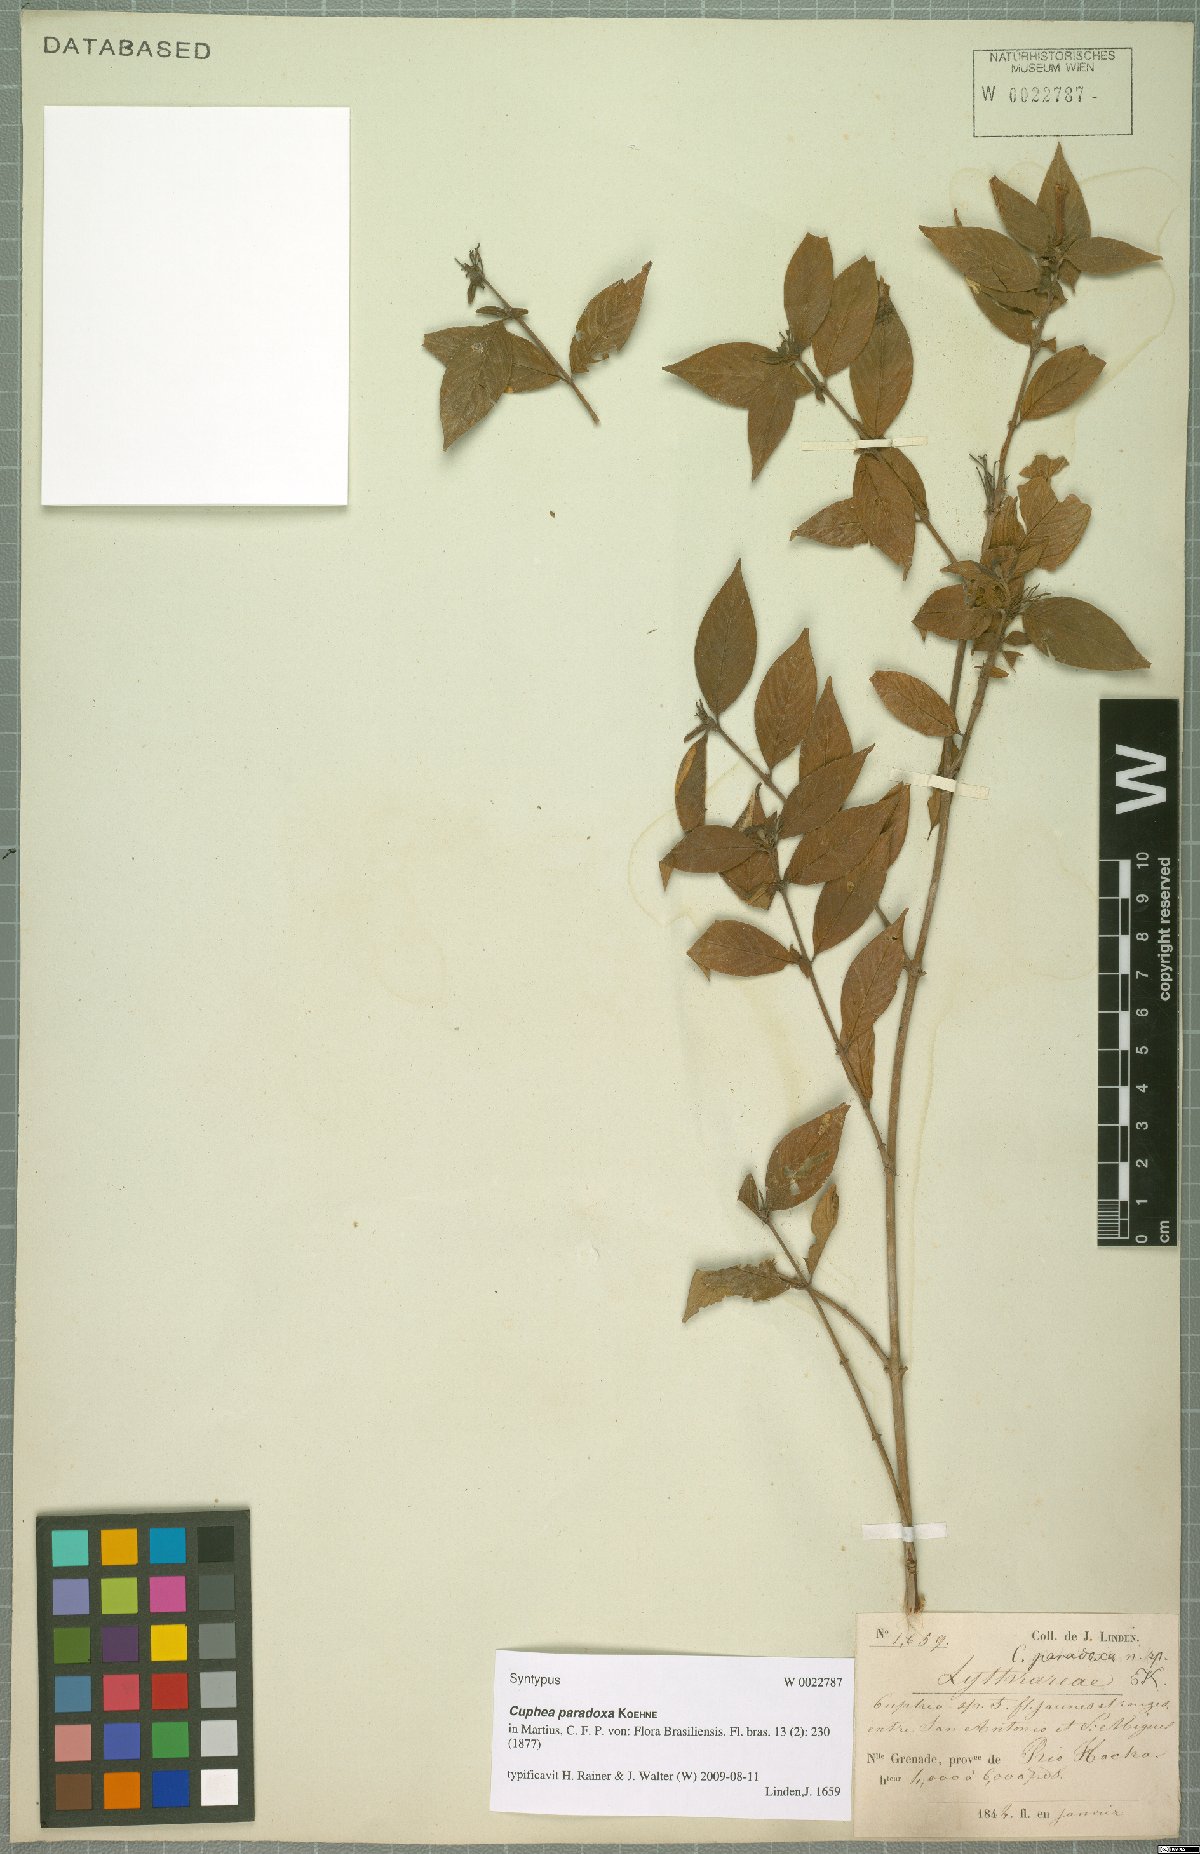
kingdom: Plantae
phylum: Tracheophyta
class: Magnoliopsida
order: Myrtales
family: Lythraceae
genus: Cuphea
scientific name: Cuphea paradoxa
